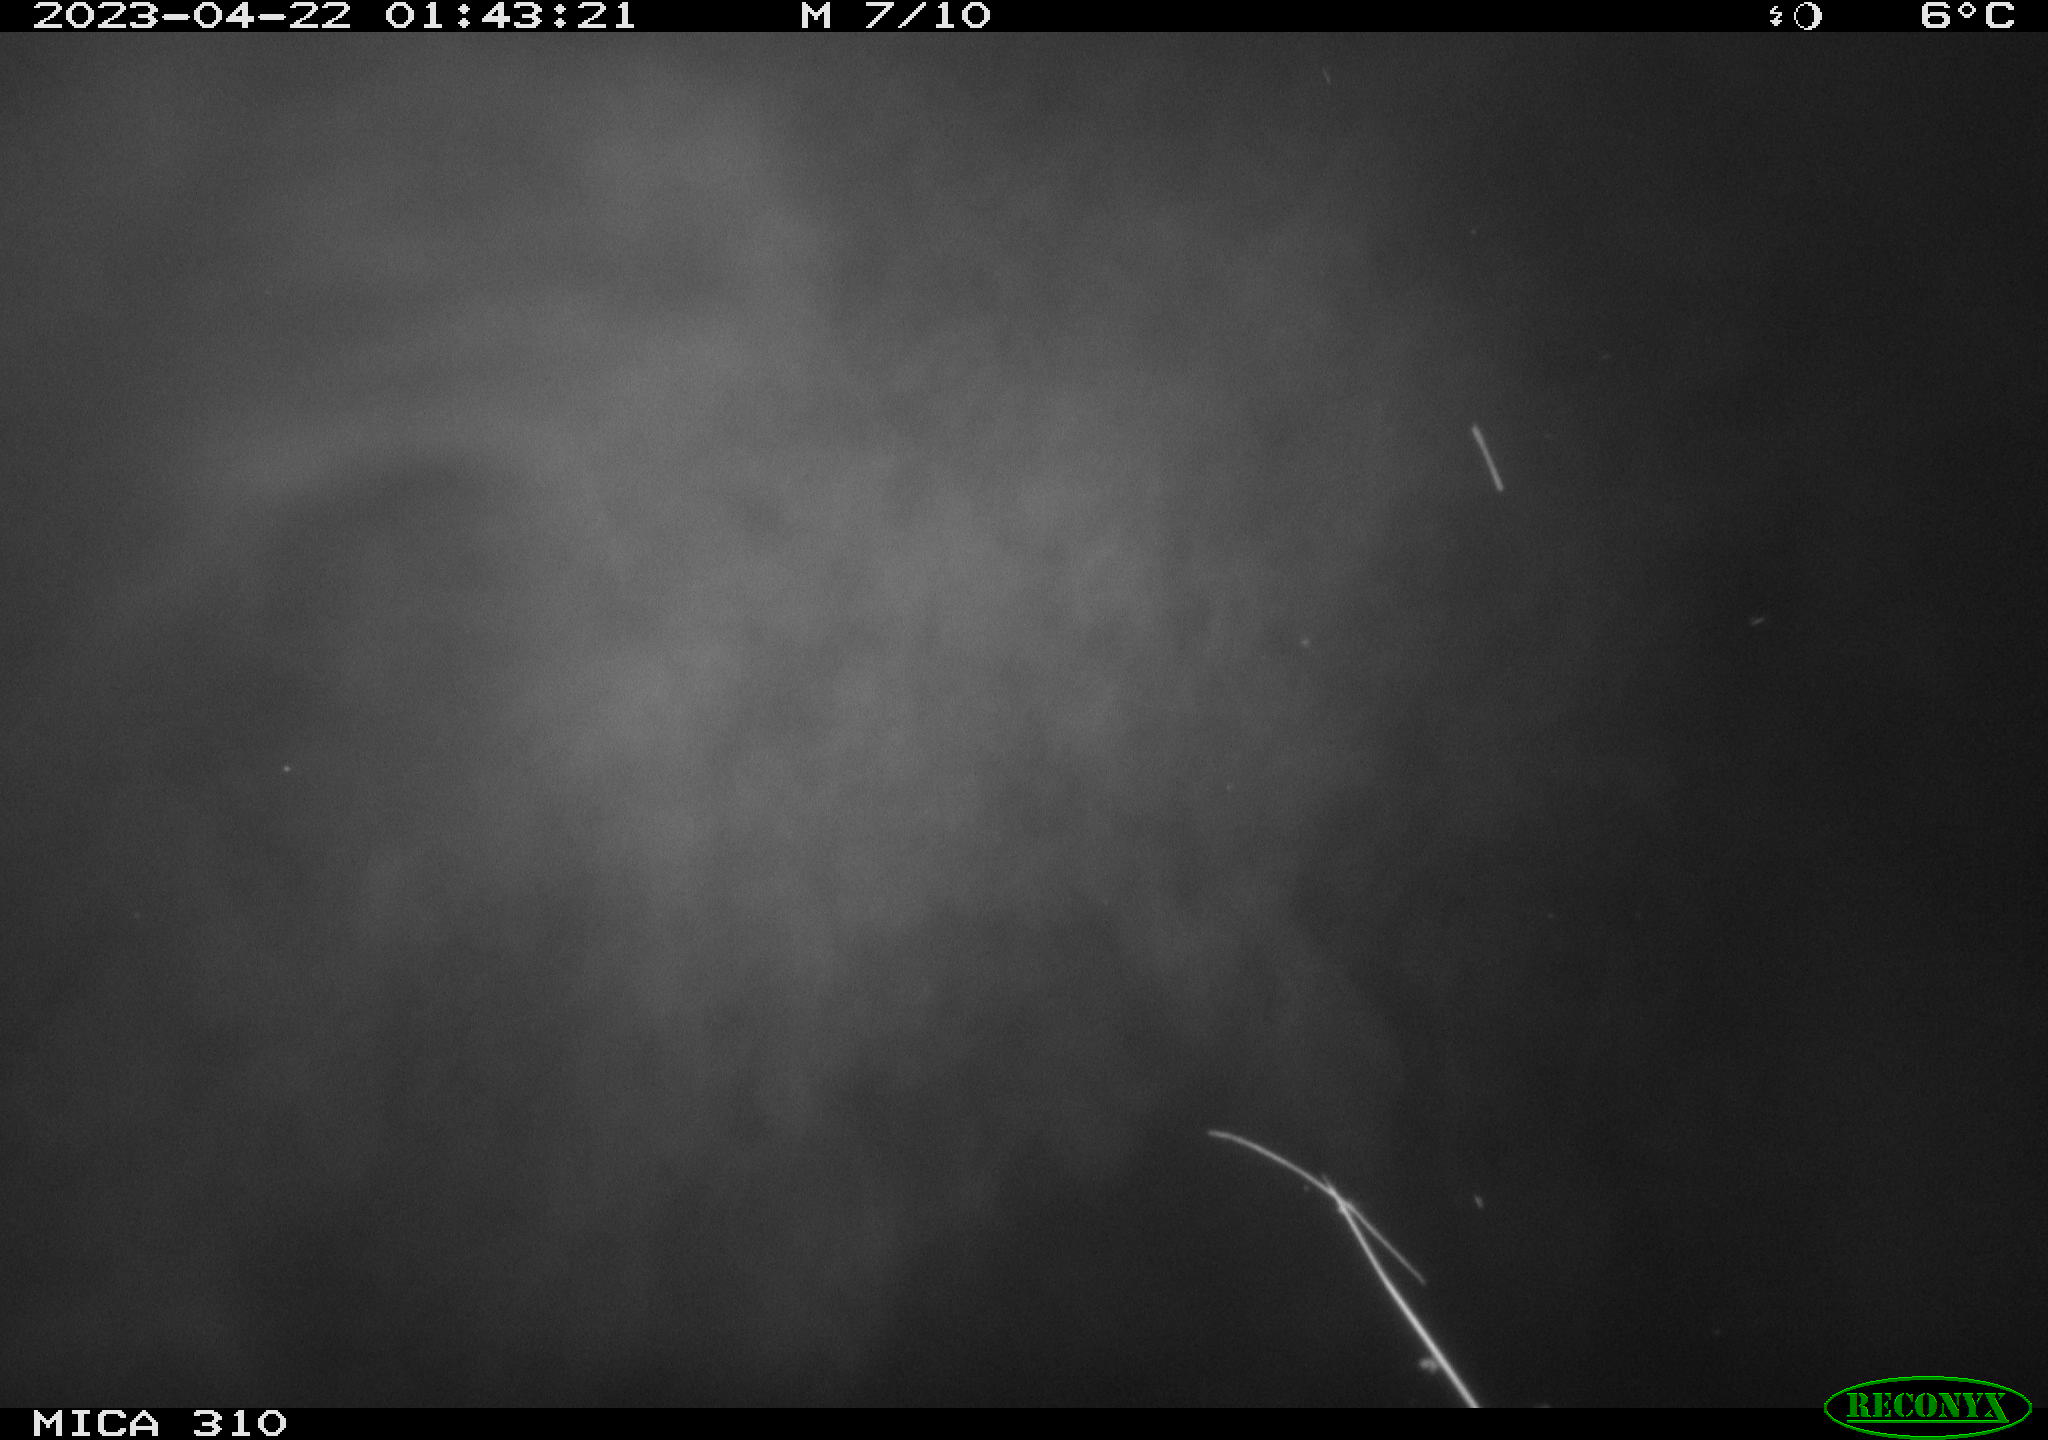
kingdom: Animalia
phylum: Chordata
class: Aves
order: Anseriformes
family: Anatidae
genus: Anas
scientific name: Anas
